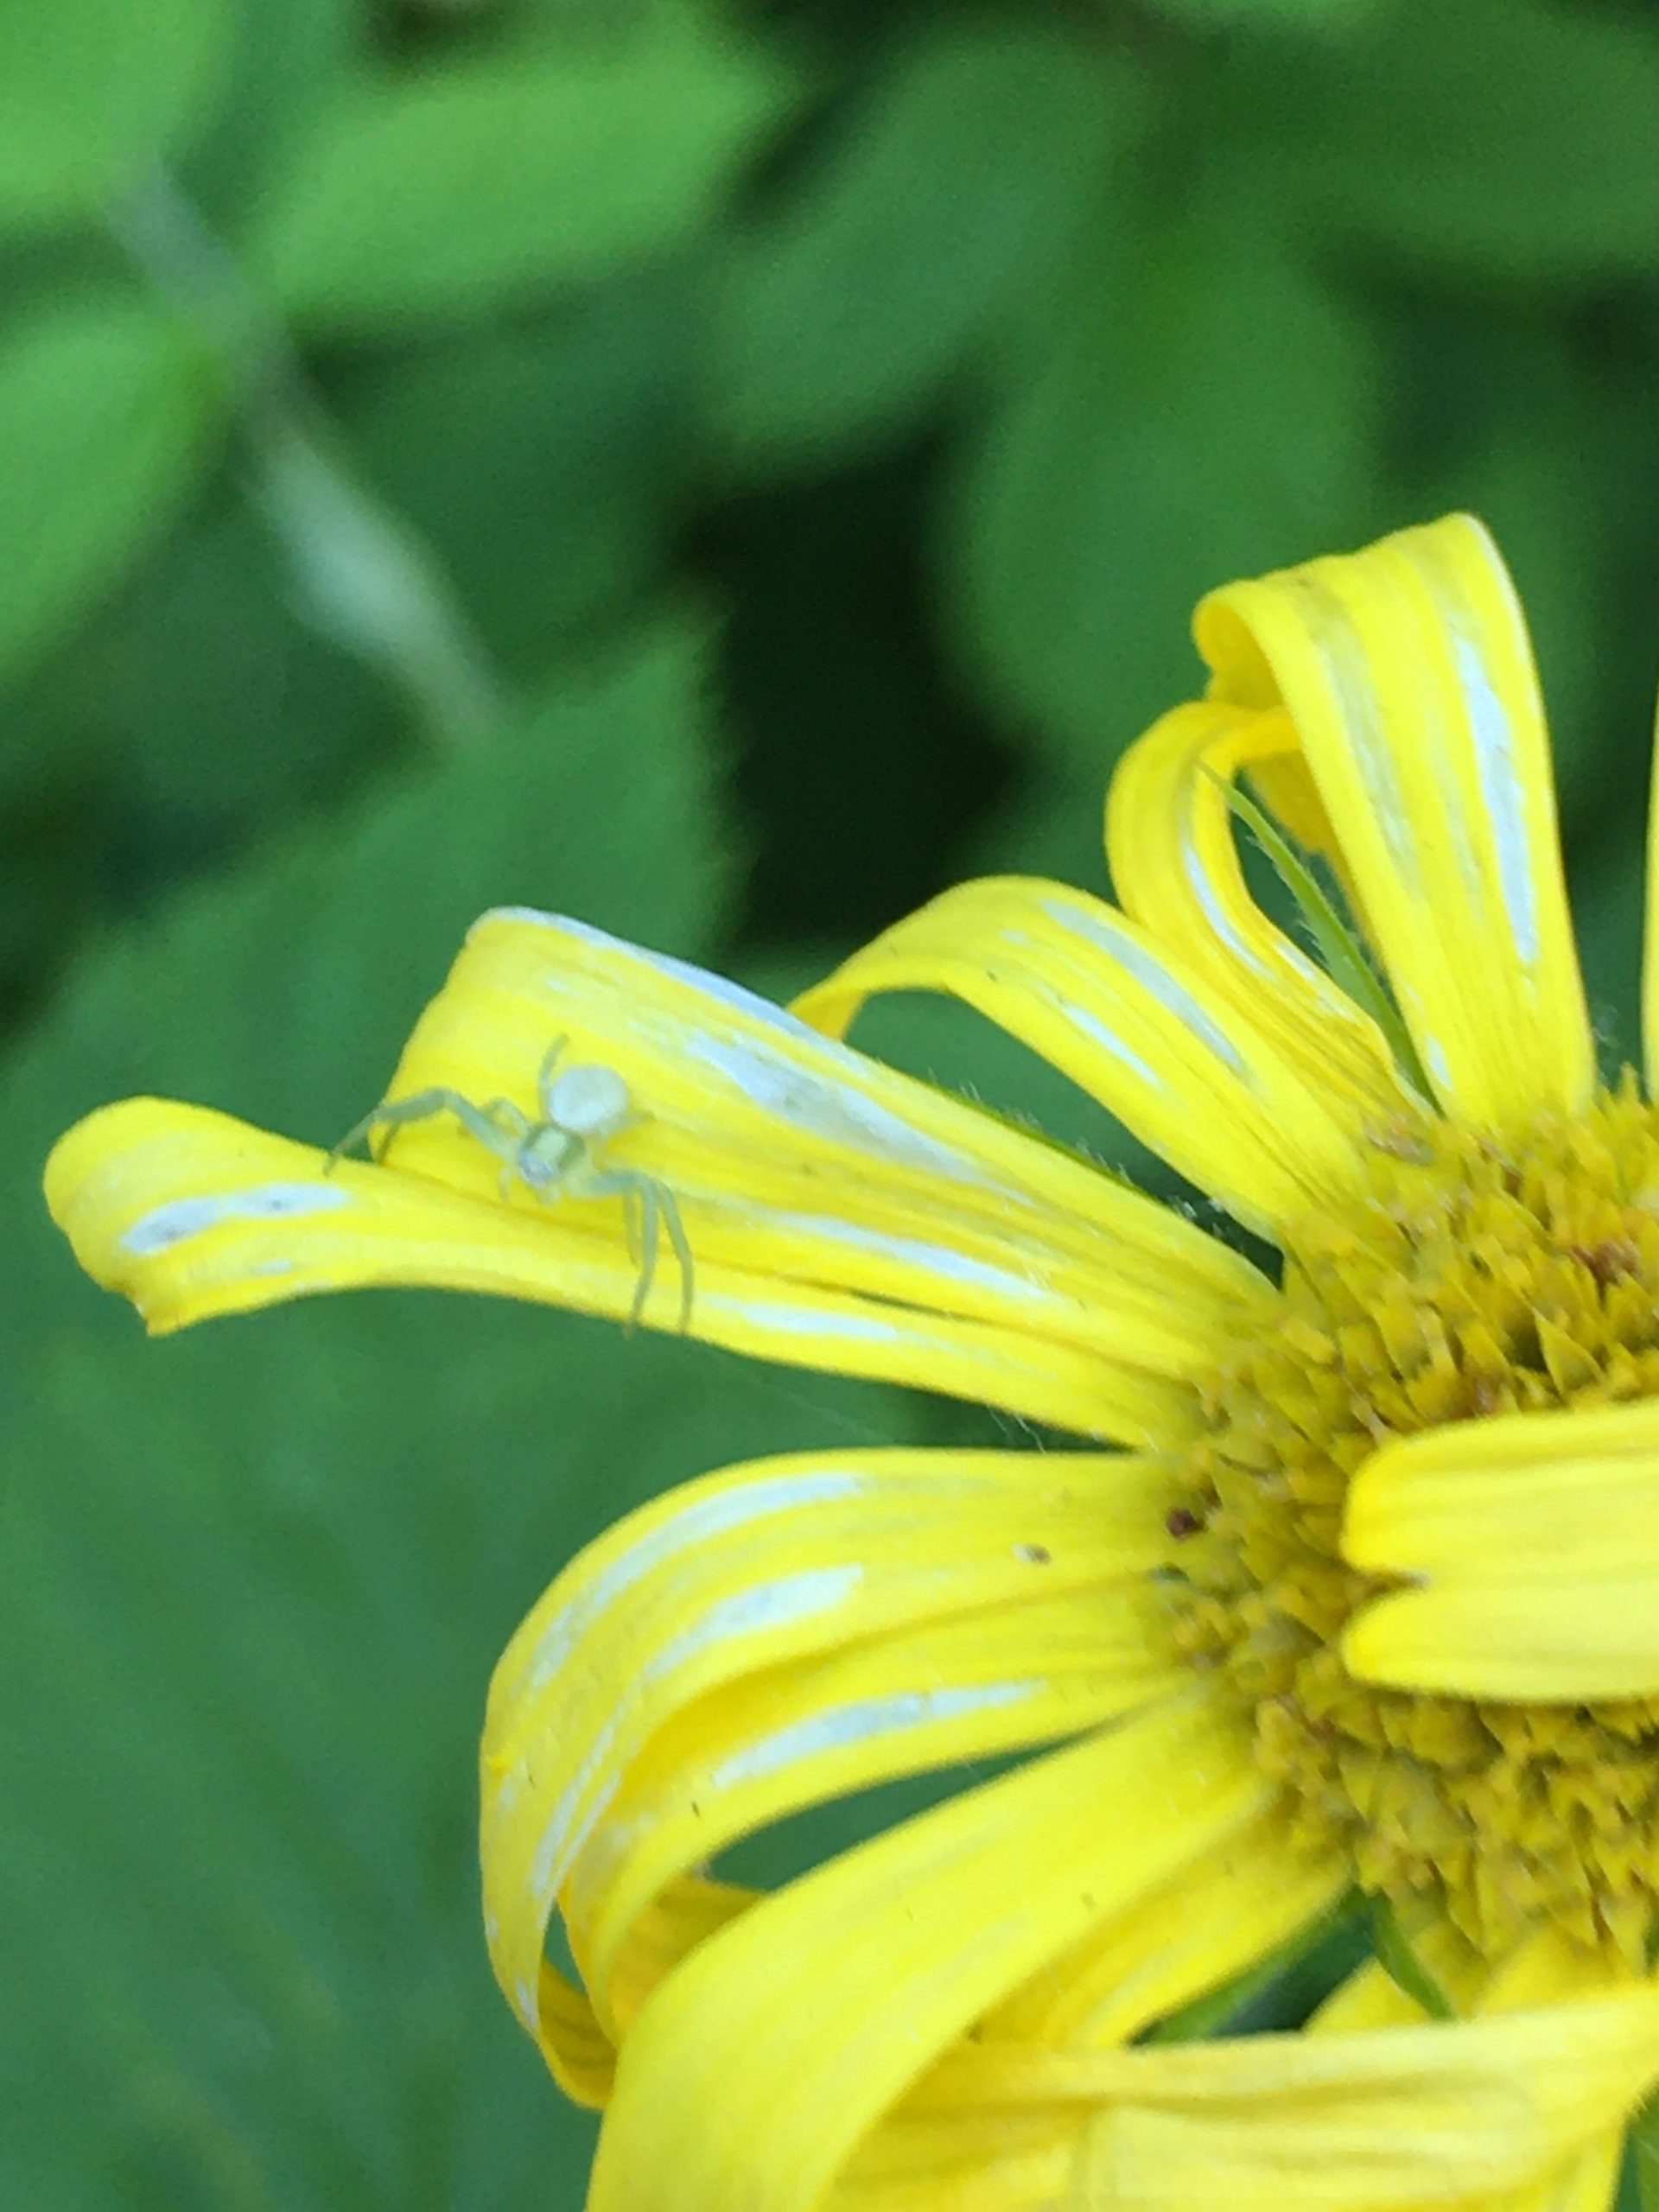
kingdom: Animalia
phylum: Arthropoda
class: Arachnida
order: Araneae
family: Thomisidae
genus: Misumena
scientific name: Misumena vatia
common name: Kamæleonedderkop
